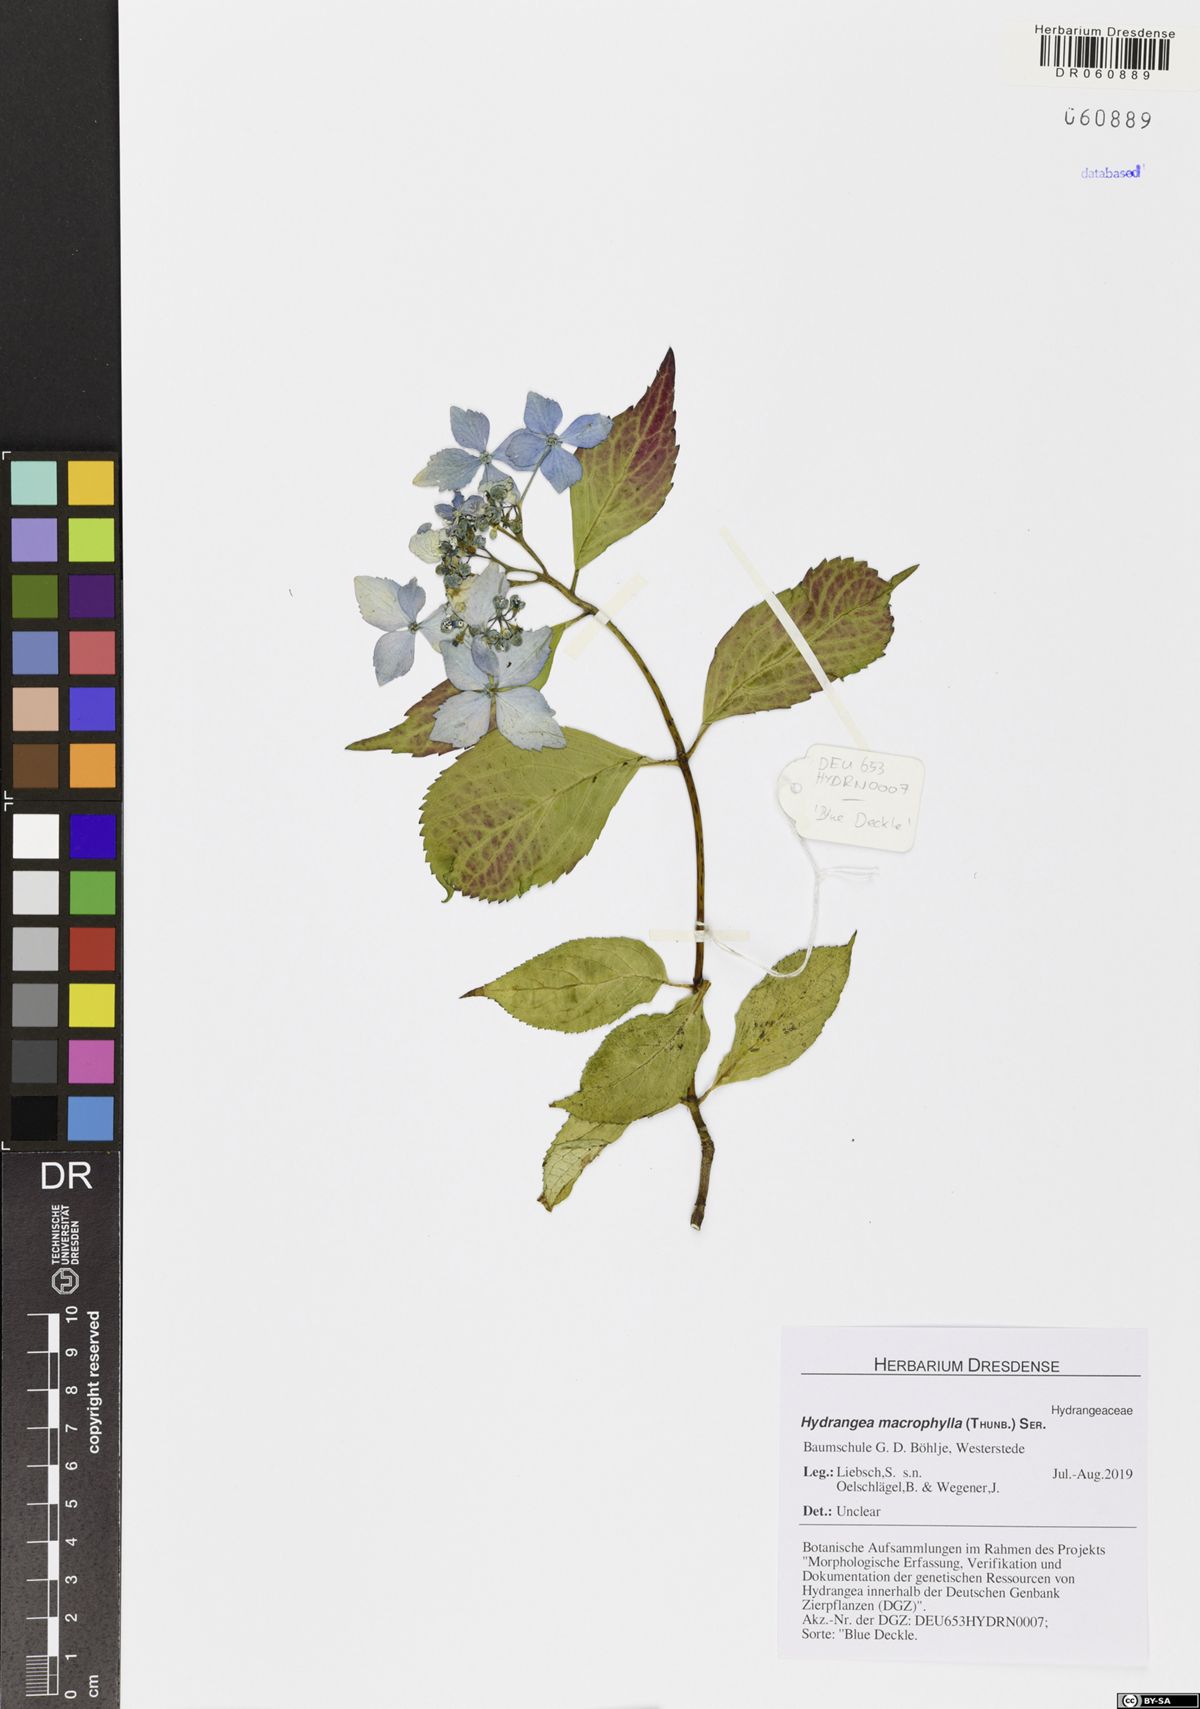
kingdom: Plantae
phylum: Tracheophyta
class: Magnoliopsida
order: Cornales
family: Hydrangeaceae
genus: Hydrangea
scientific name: Hydrangea macrophylla
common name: Hydrangea
